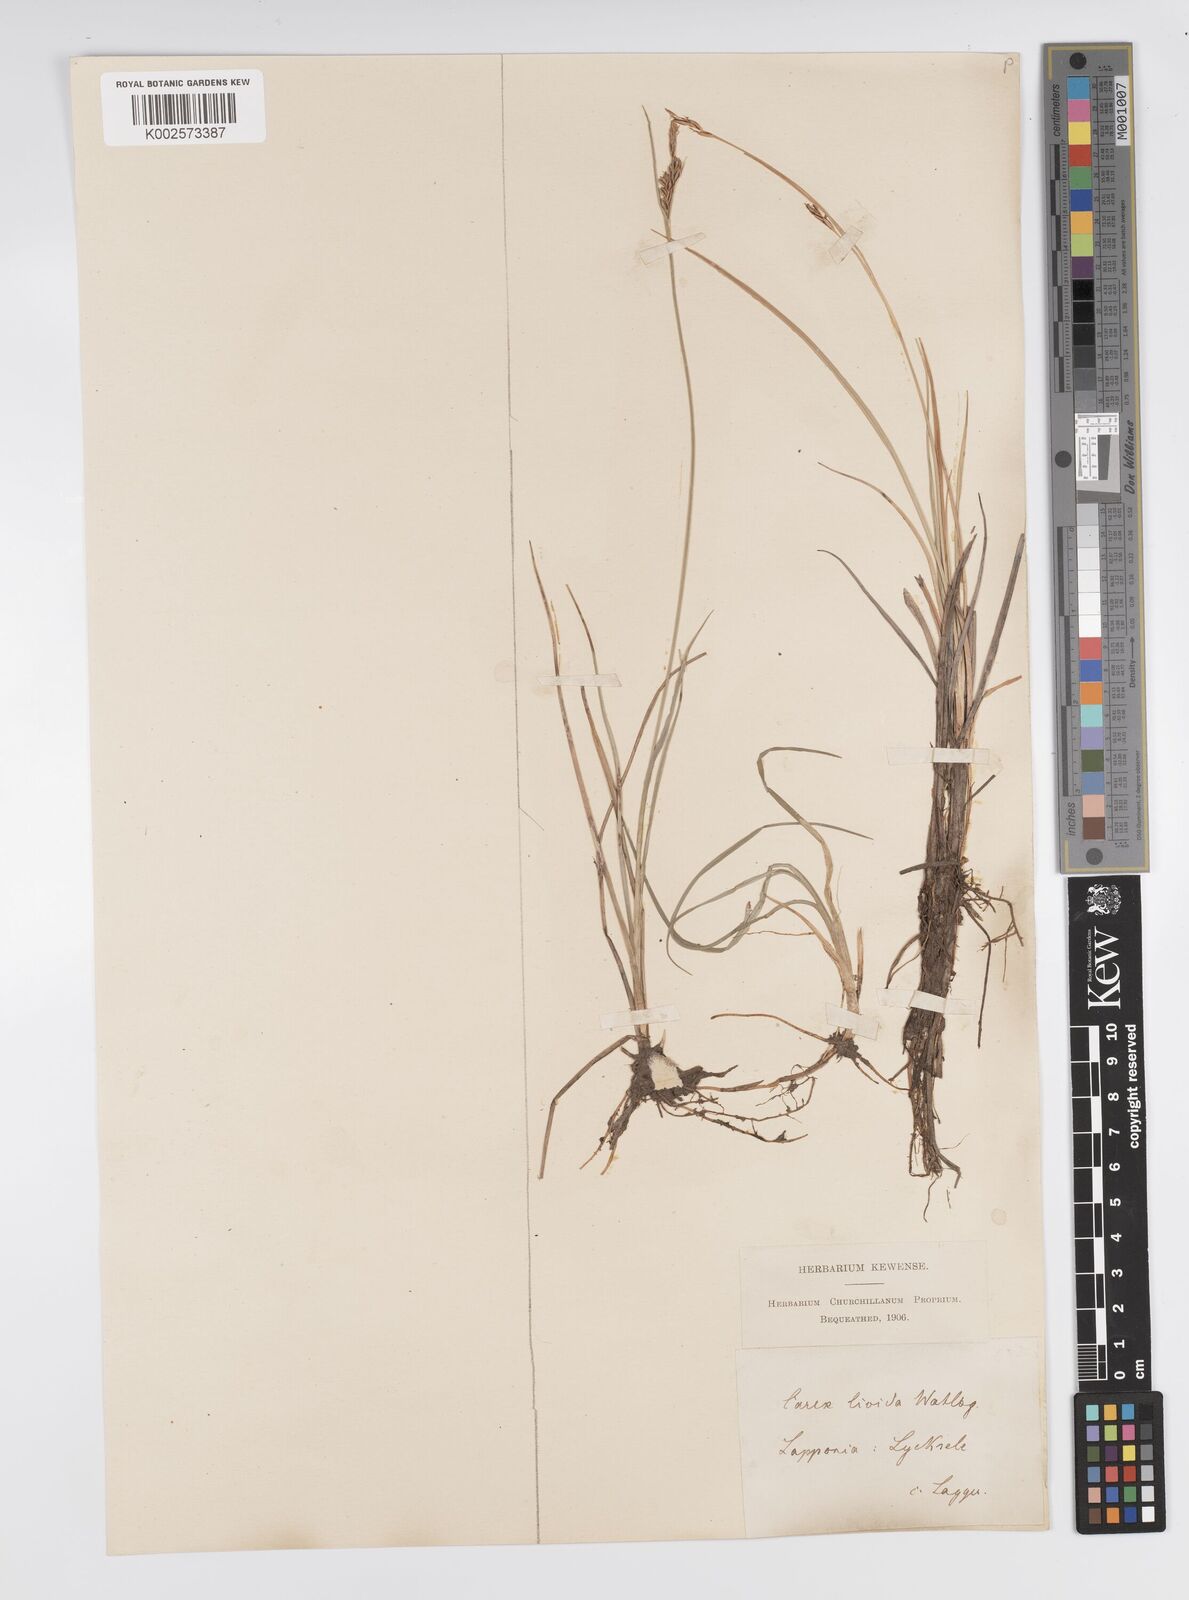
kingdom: Plantae
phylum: Tracheophyta
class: Liliopsida
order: Poales
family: Cyperaceae
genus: Carex
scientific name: Carex livida
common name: Livid sedge
